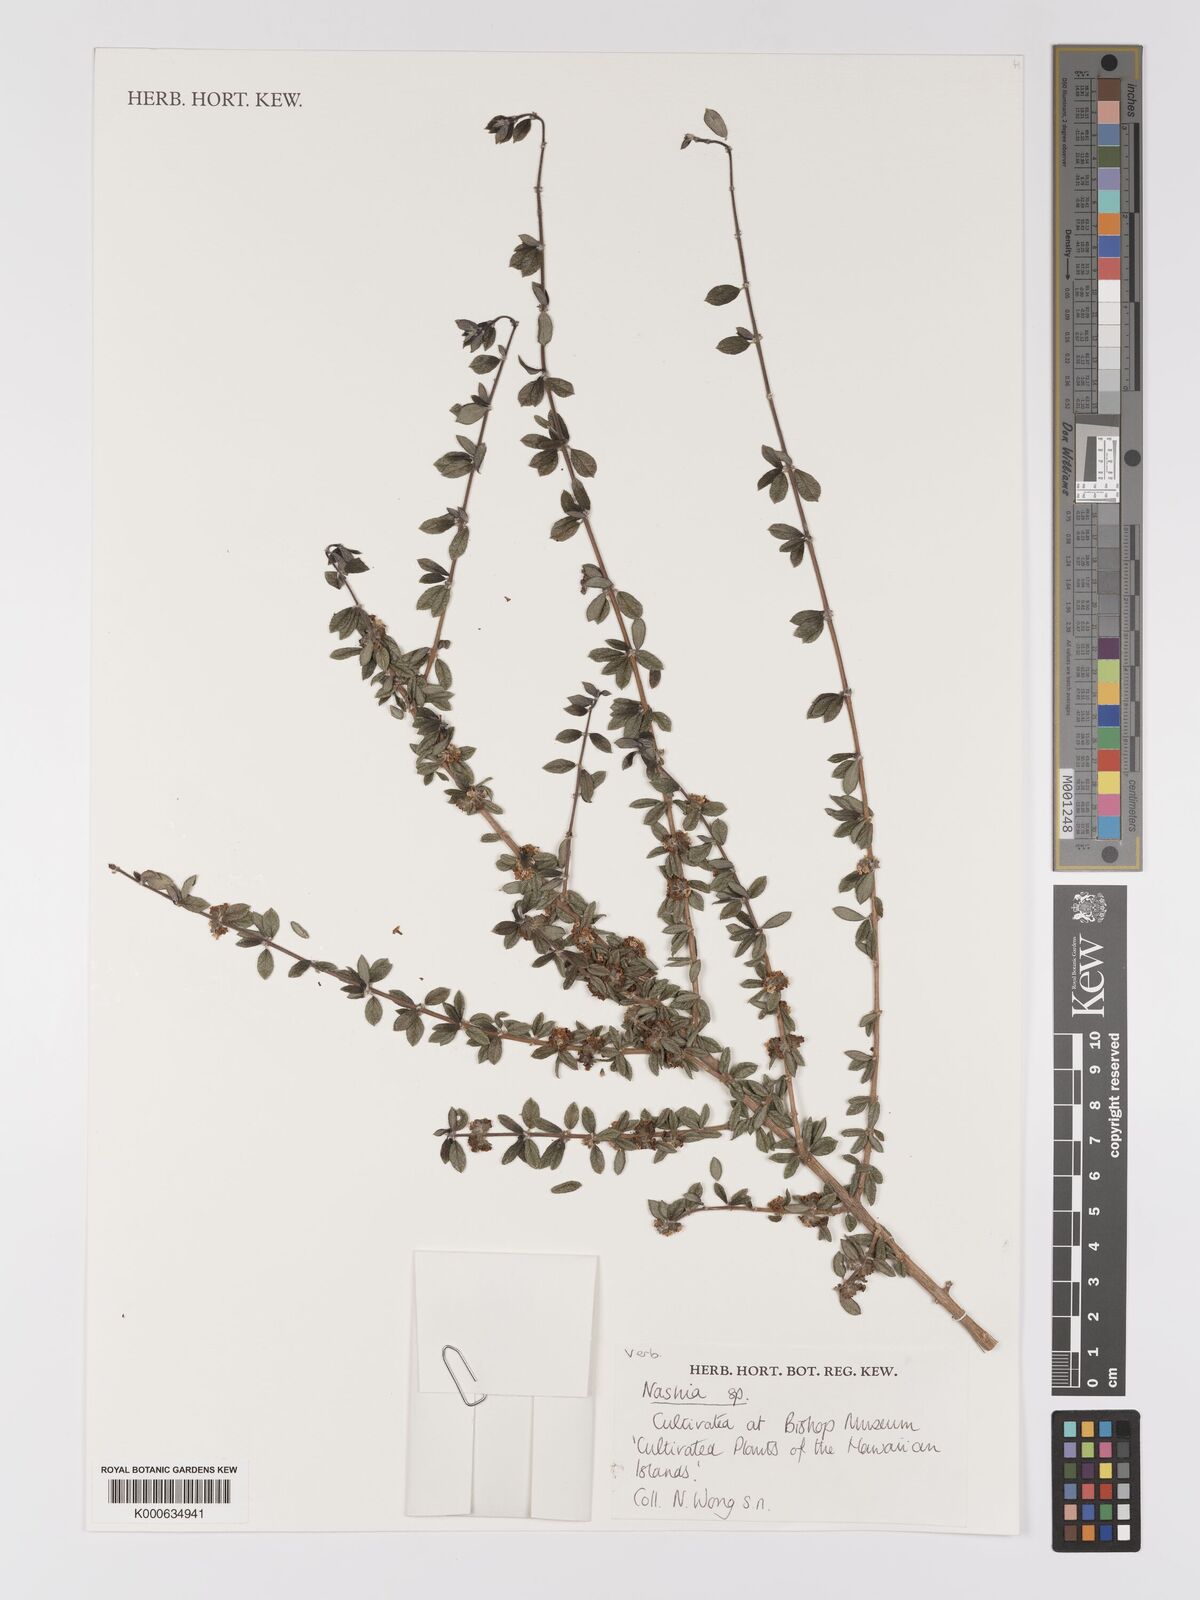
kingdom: Plantae
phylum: Tracheophyta
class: Magnoliopsida
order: Lamiales
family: Verbenaceae
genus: Nashia
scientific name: Nashia
